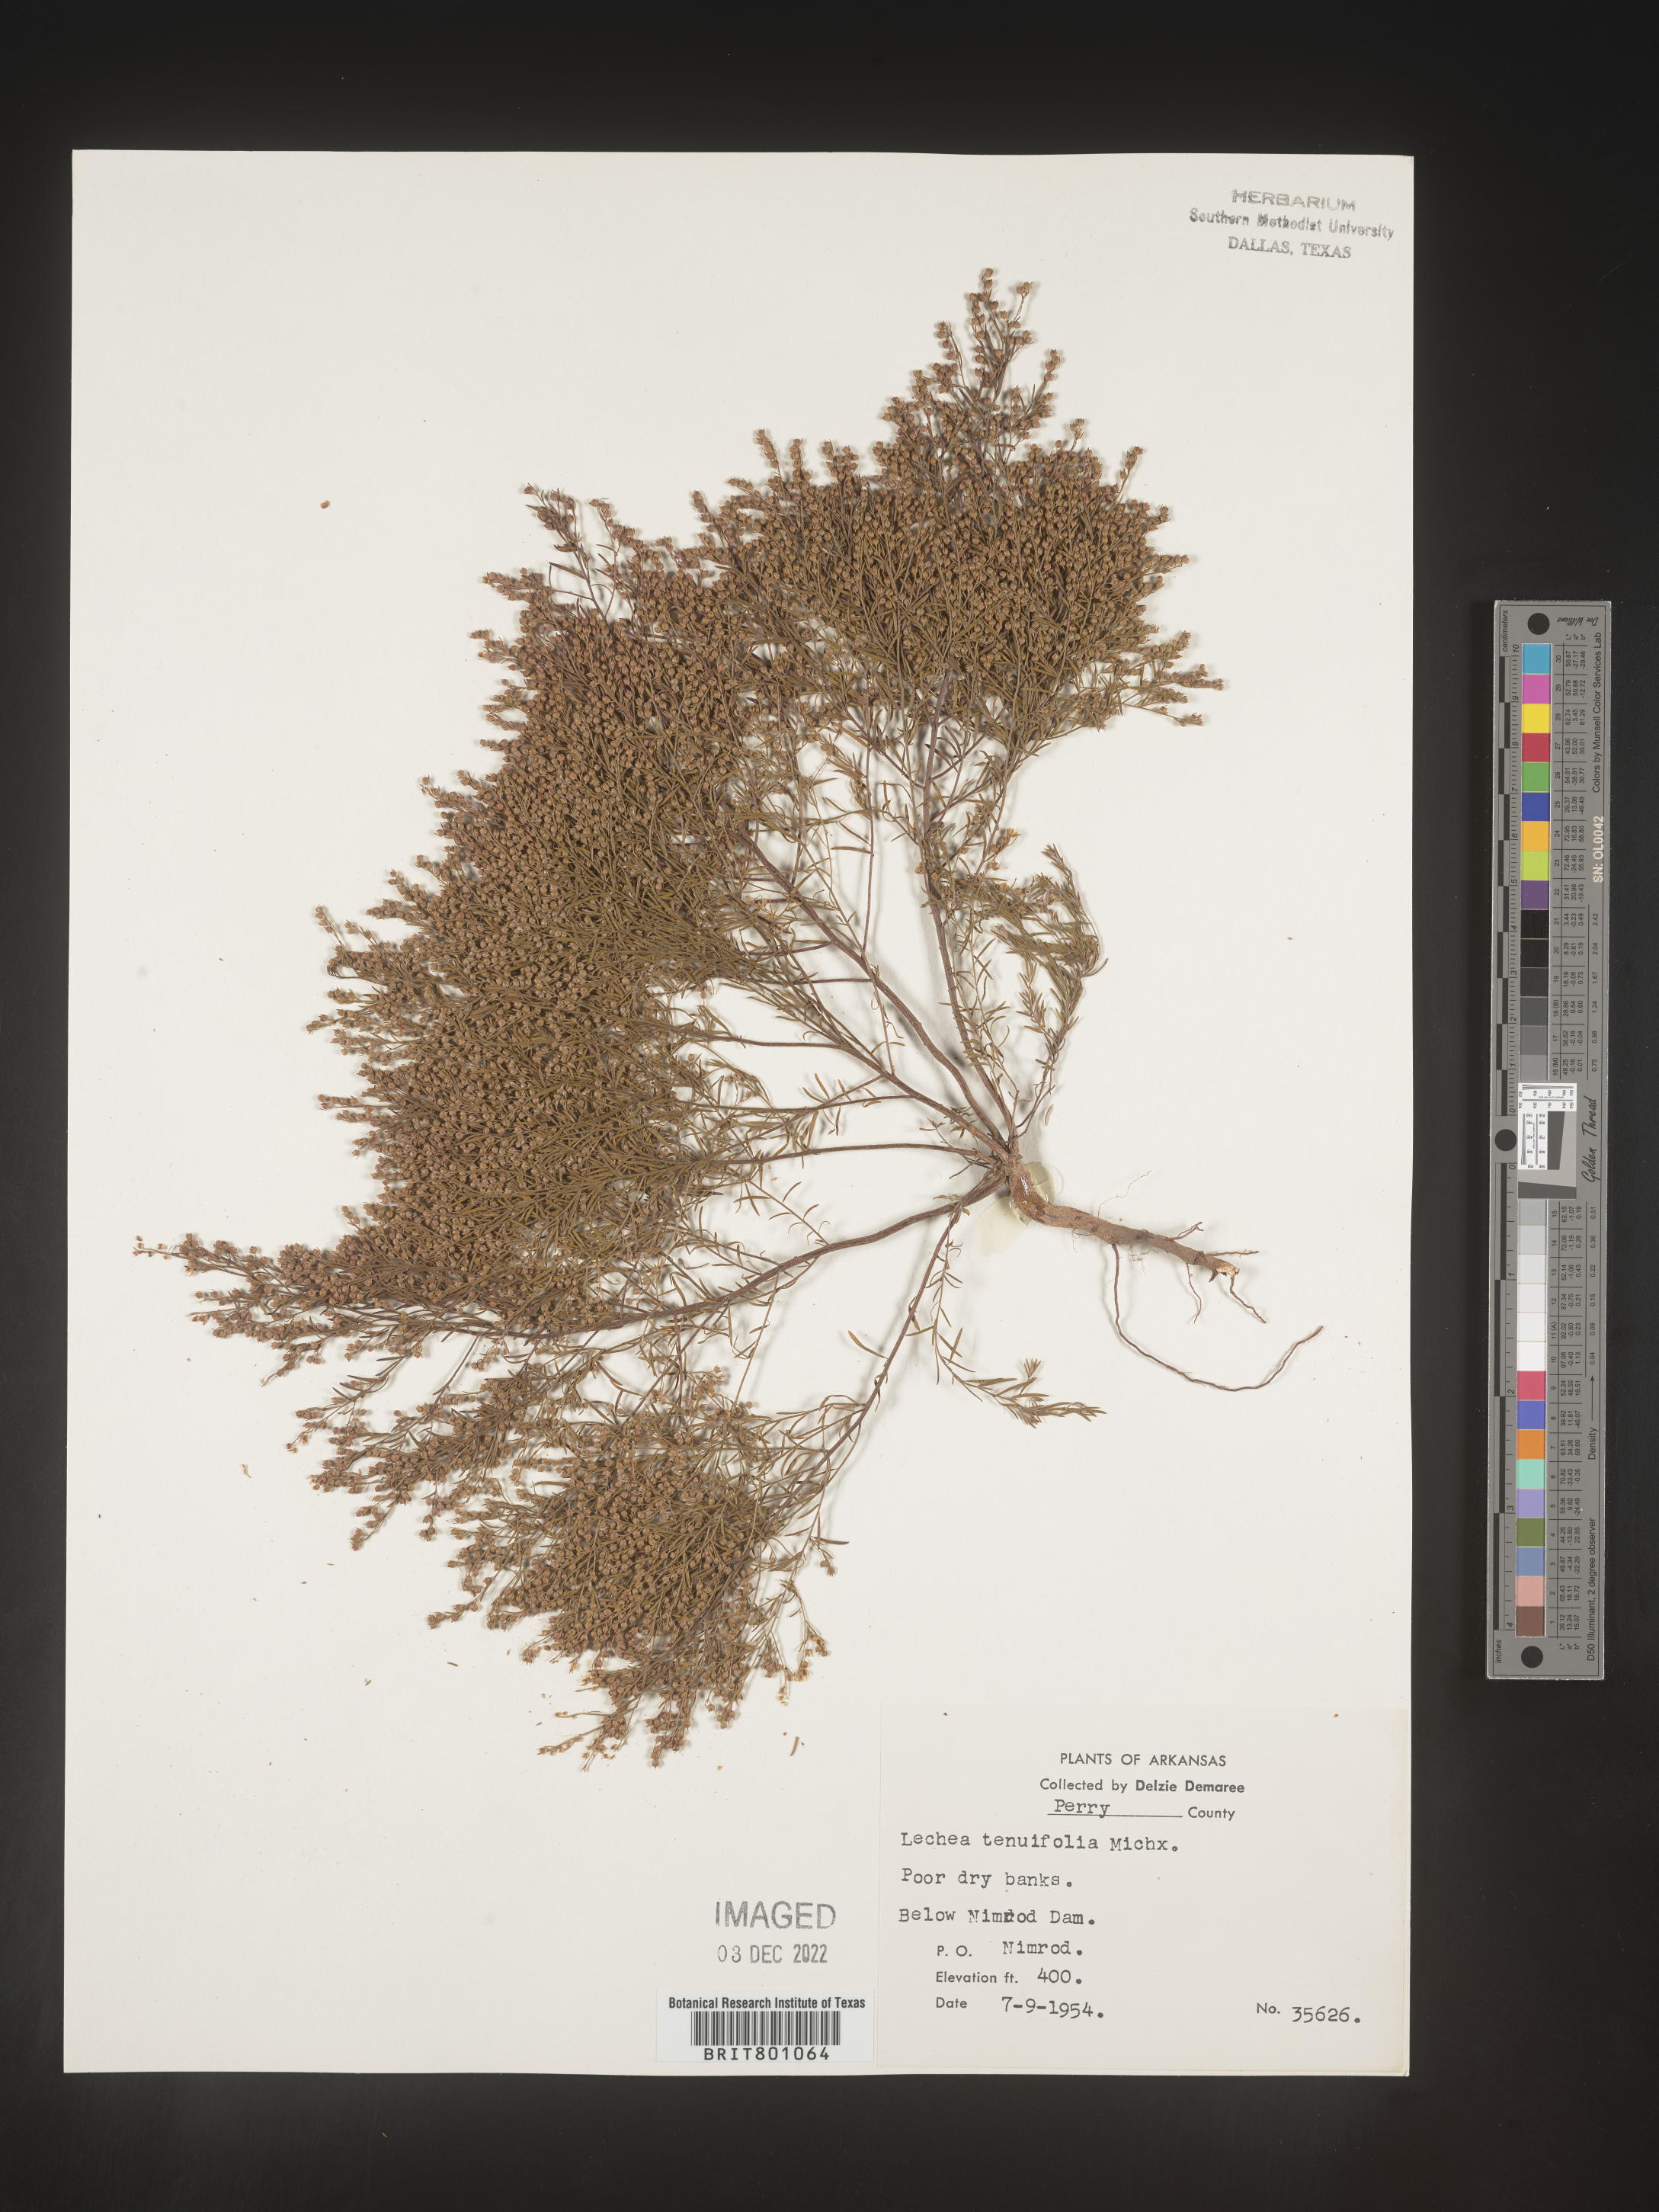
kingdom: Plantae
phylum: Tracheophyta
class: Magnoliopsida
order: Malvales
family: Cistaceae
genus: Lechea
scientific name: Lechea tenuifolia
